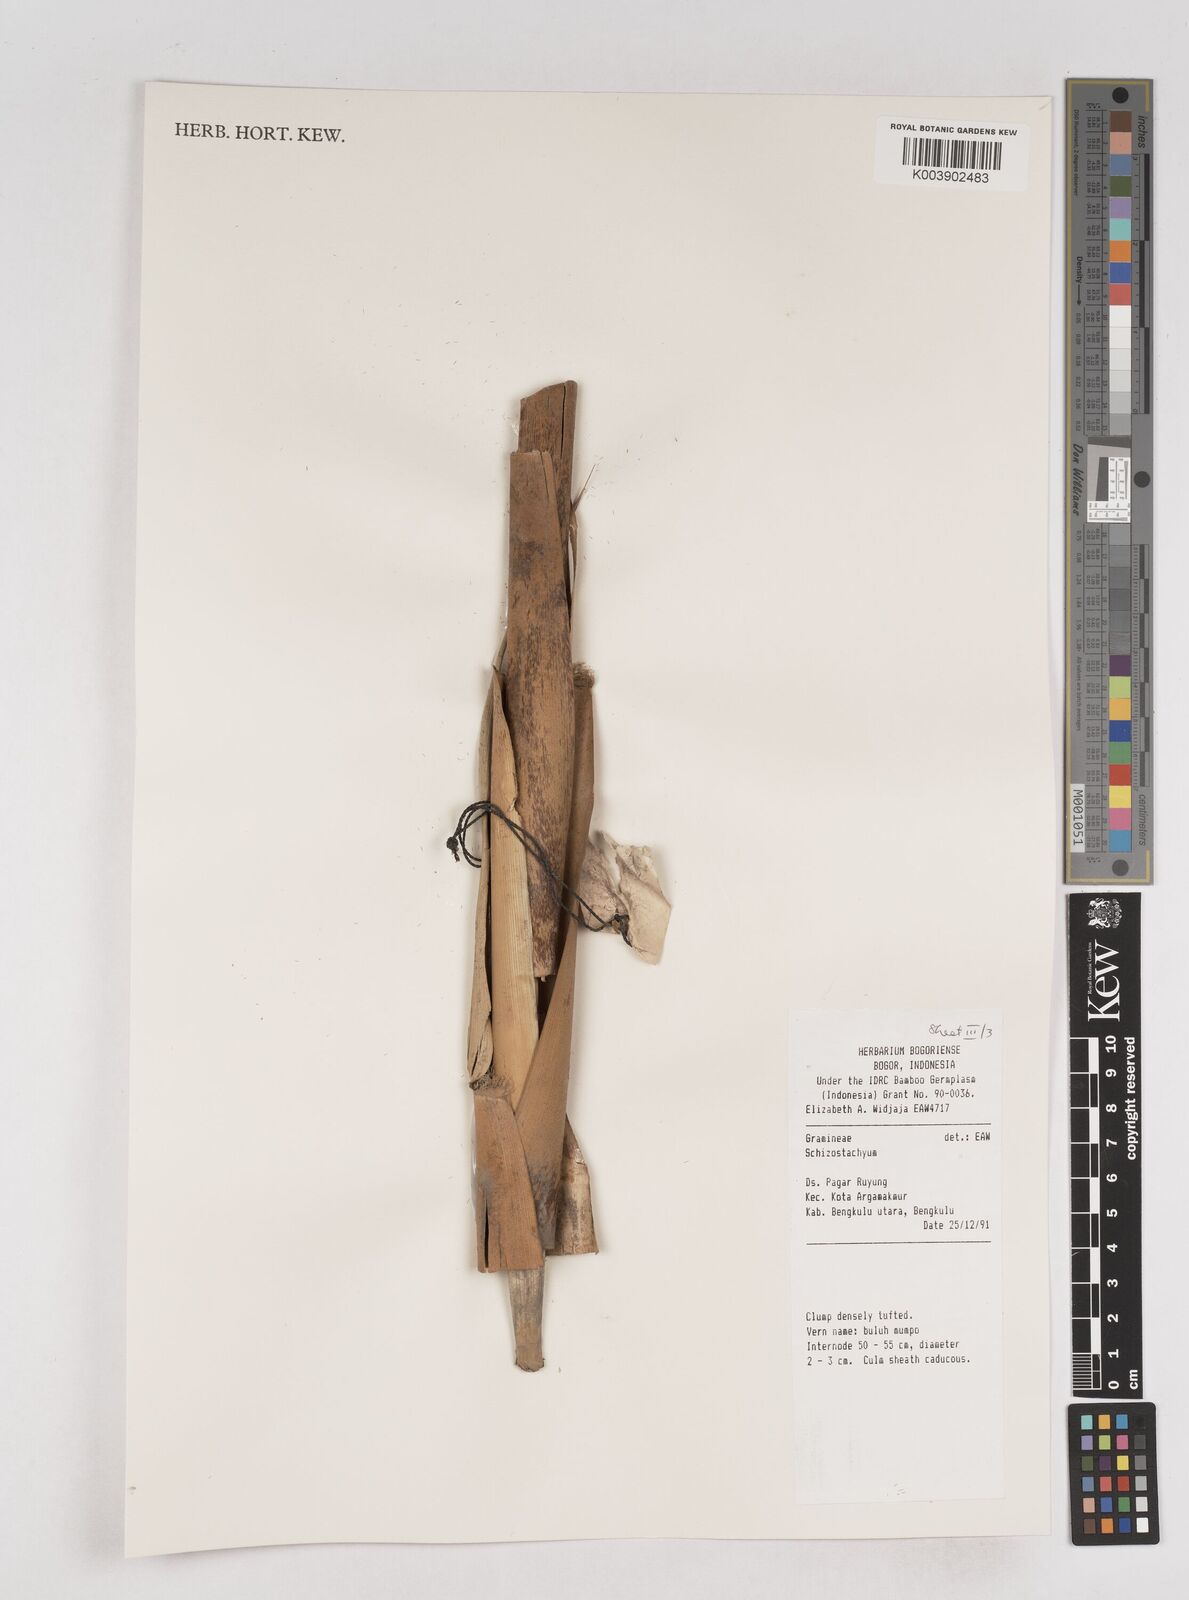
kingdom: Plantae
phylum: Tracheophyta
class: Liliopsida
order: Poales
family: Poaceae
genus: Schizostachyum
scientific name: Schizostachyum
